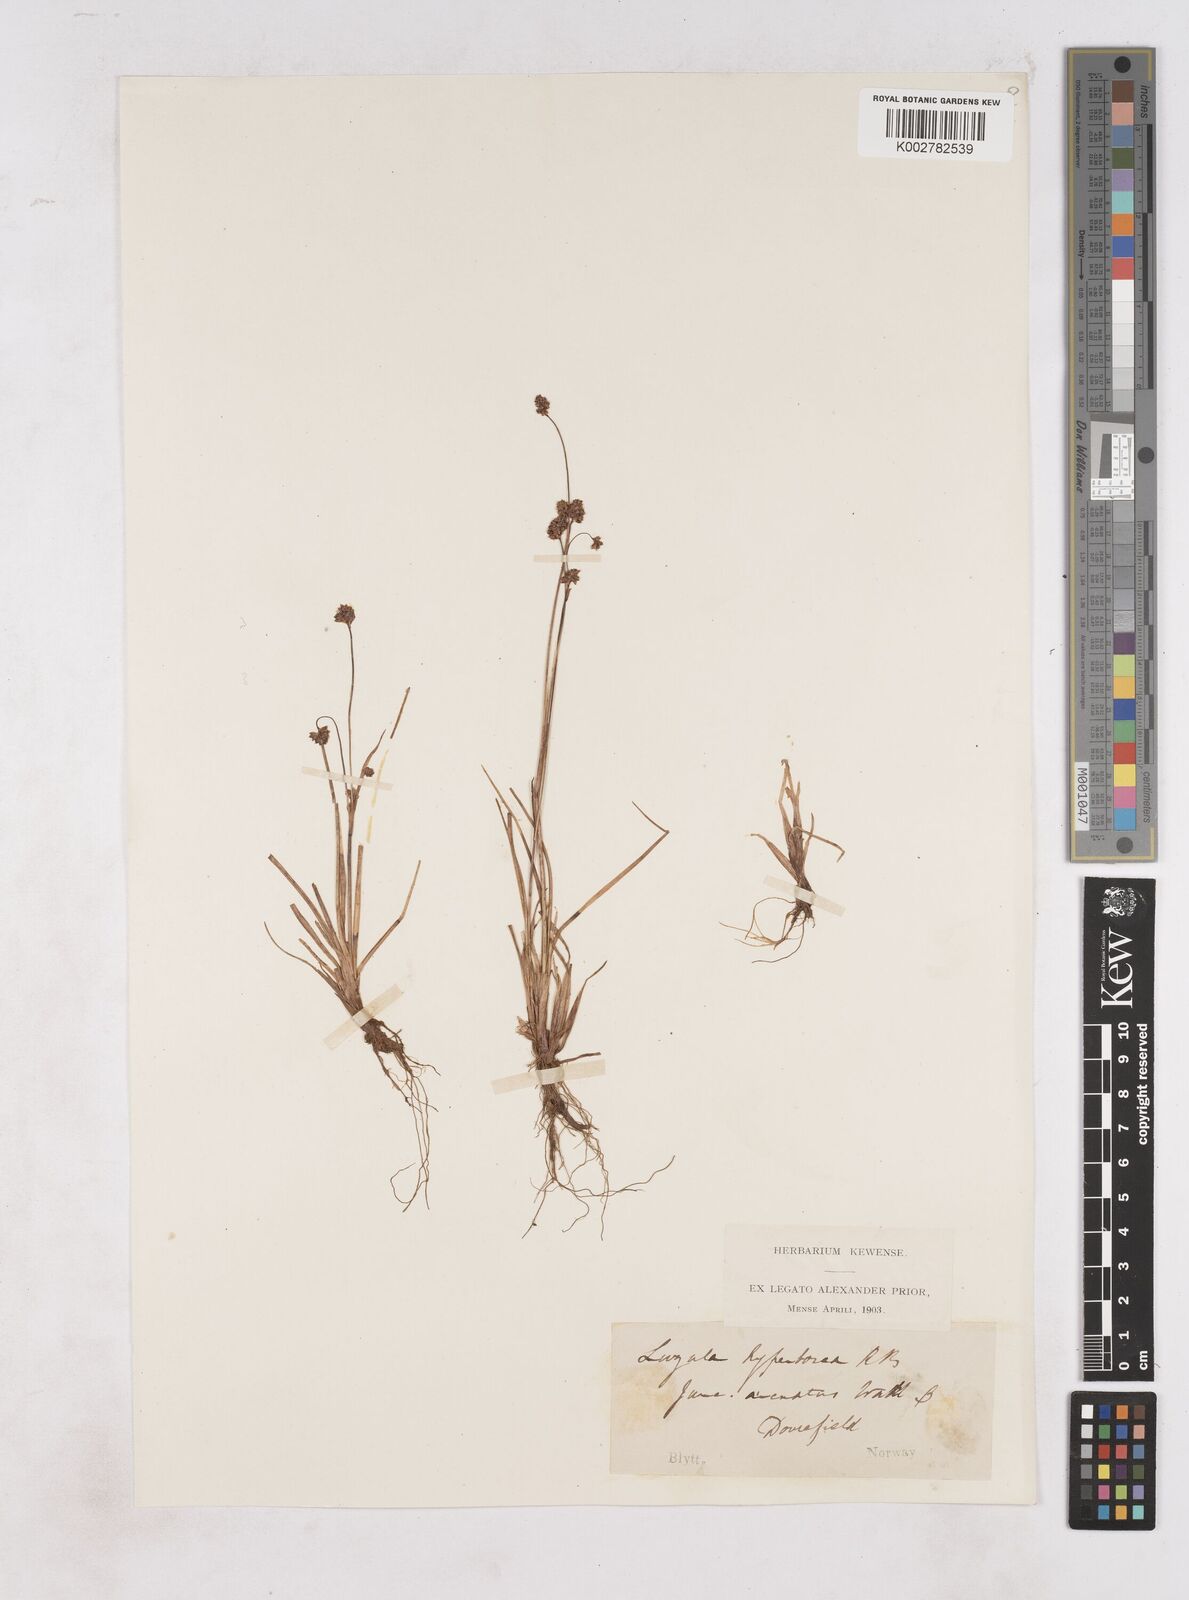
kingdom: Plantae
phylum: Tracheophyta
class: Liliopsida
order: Poales
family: Juncaceae
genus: Luzula
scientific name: Luzula arcuata
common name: Curved wood-rush
